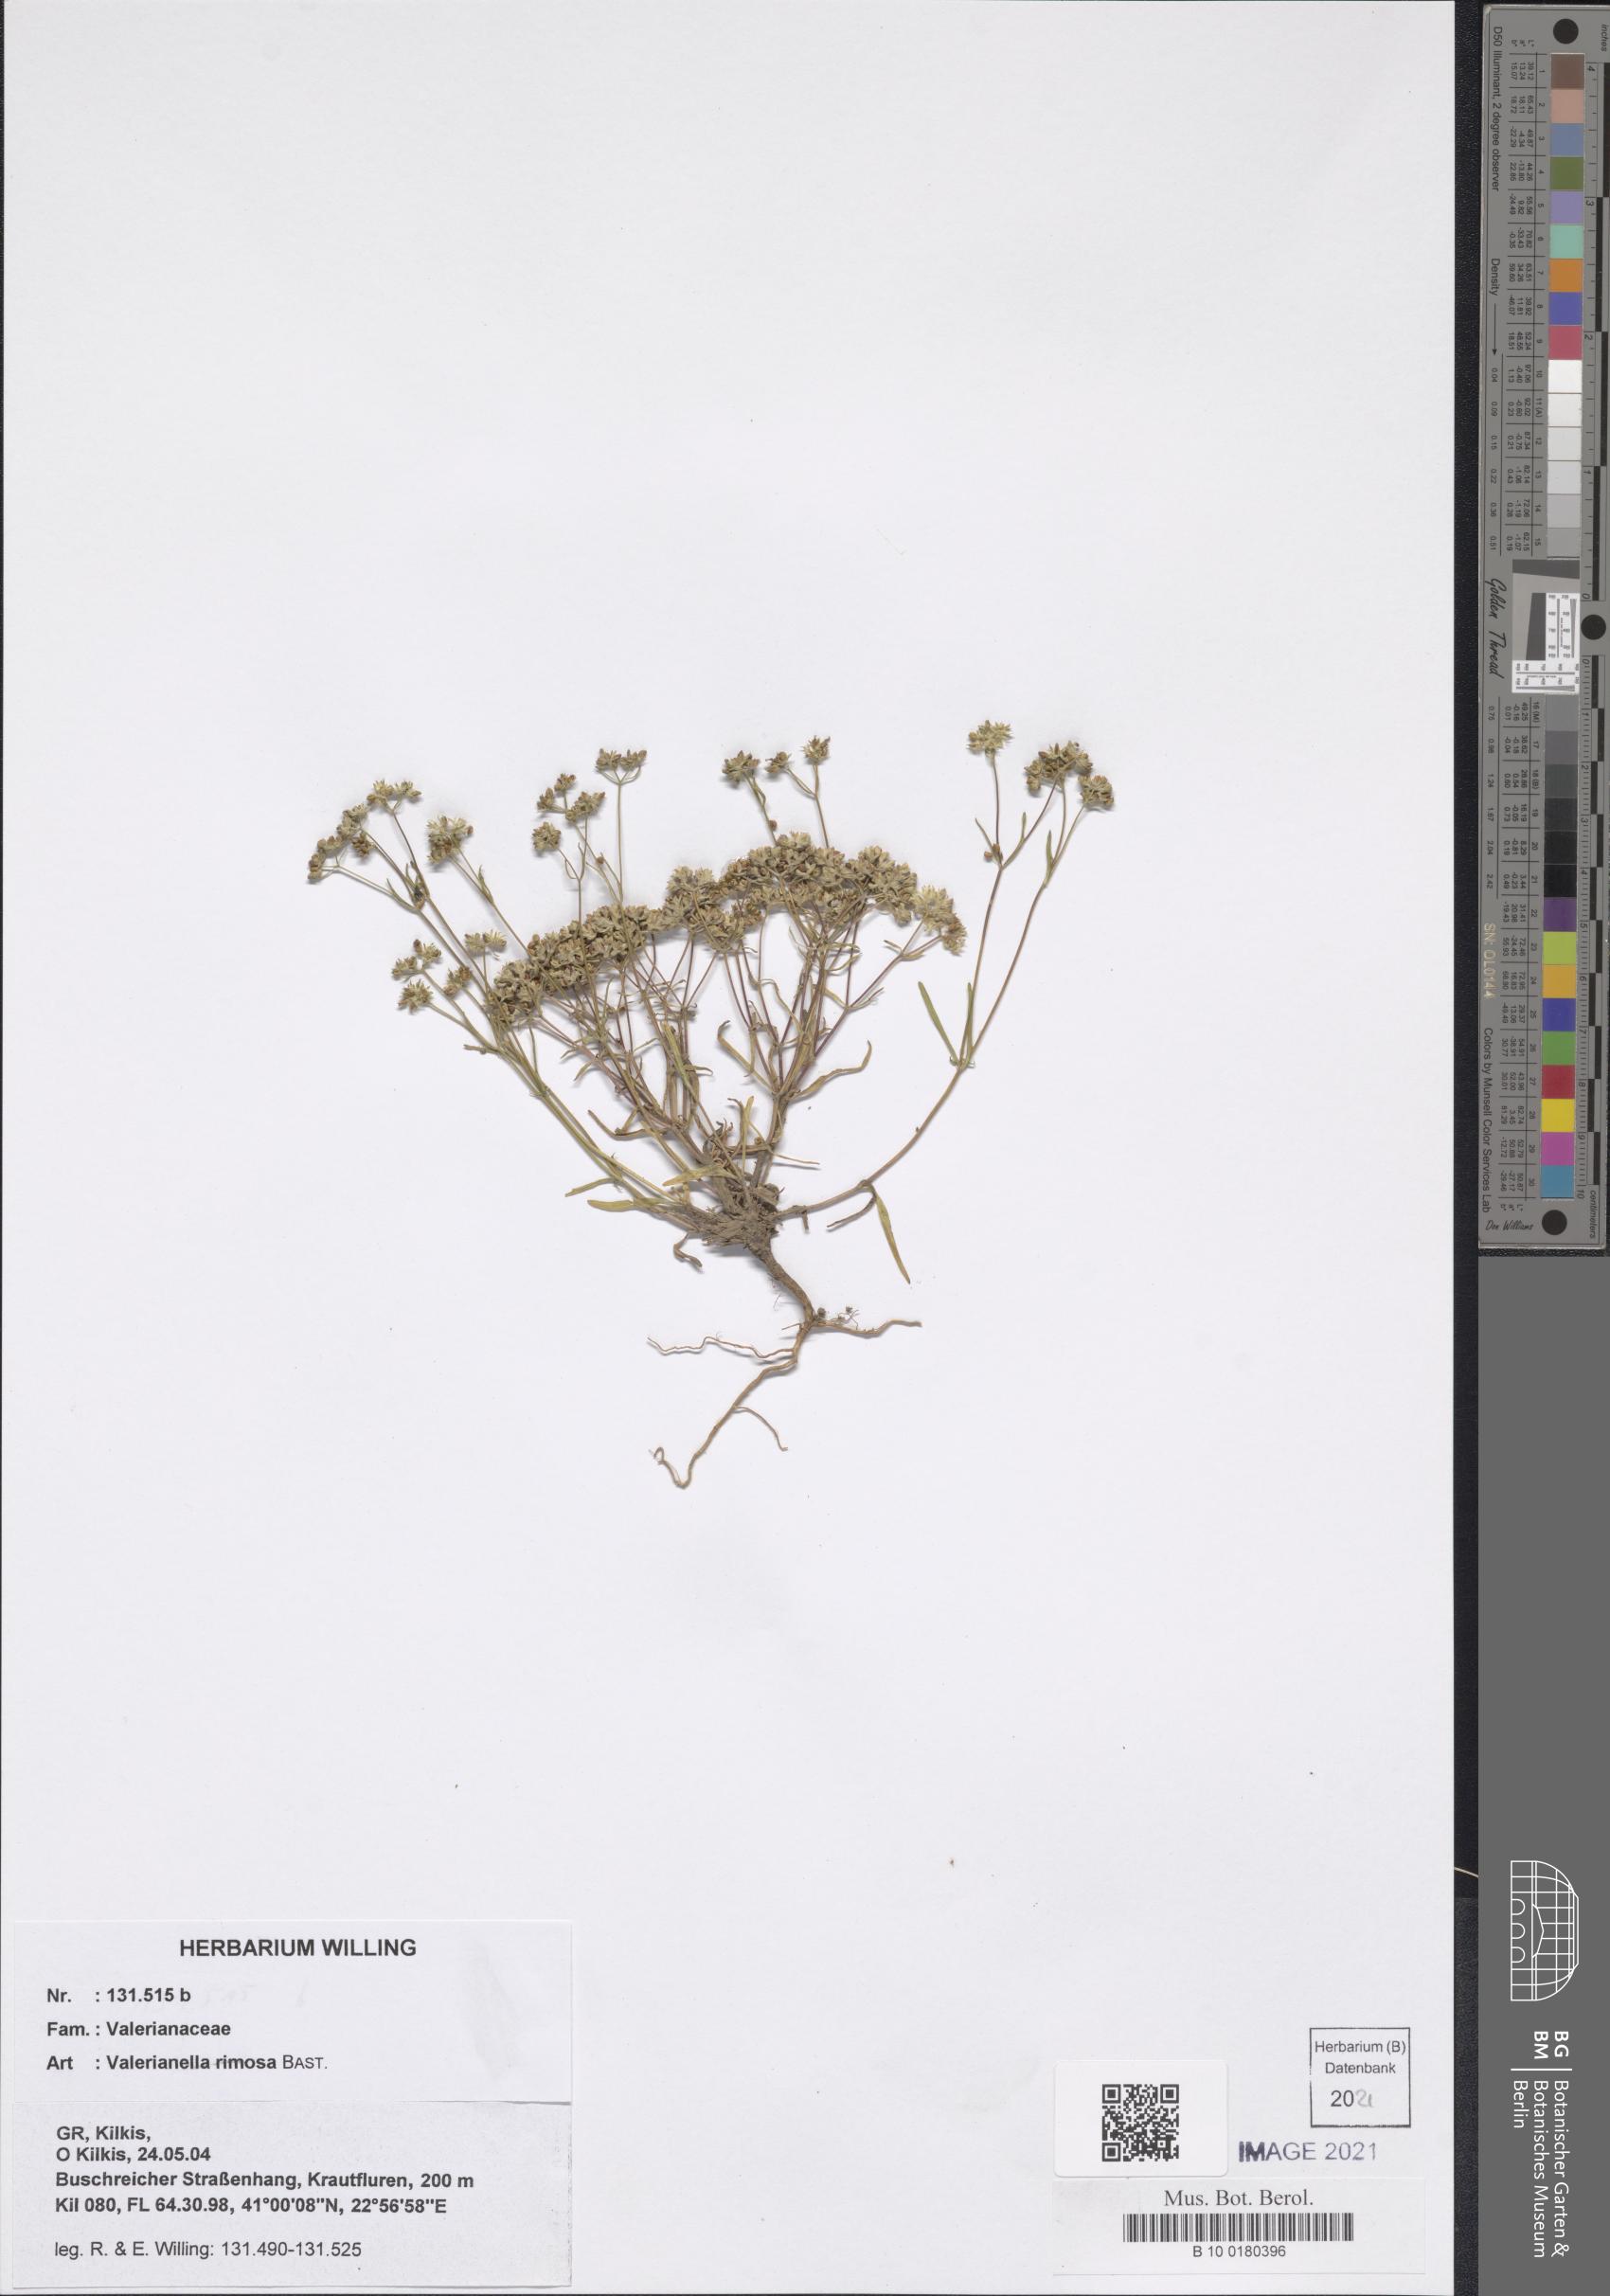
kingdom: Plantae
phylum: Tracheophyta
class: Magnoliopsida
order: Dipsacales
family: Caprifoliaceae
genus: Valerianella
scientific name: Valerianella rimosa
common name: Broad-fruited cornsalad
